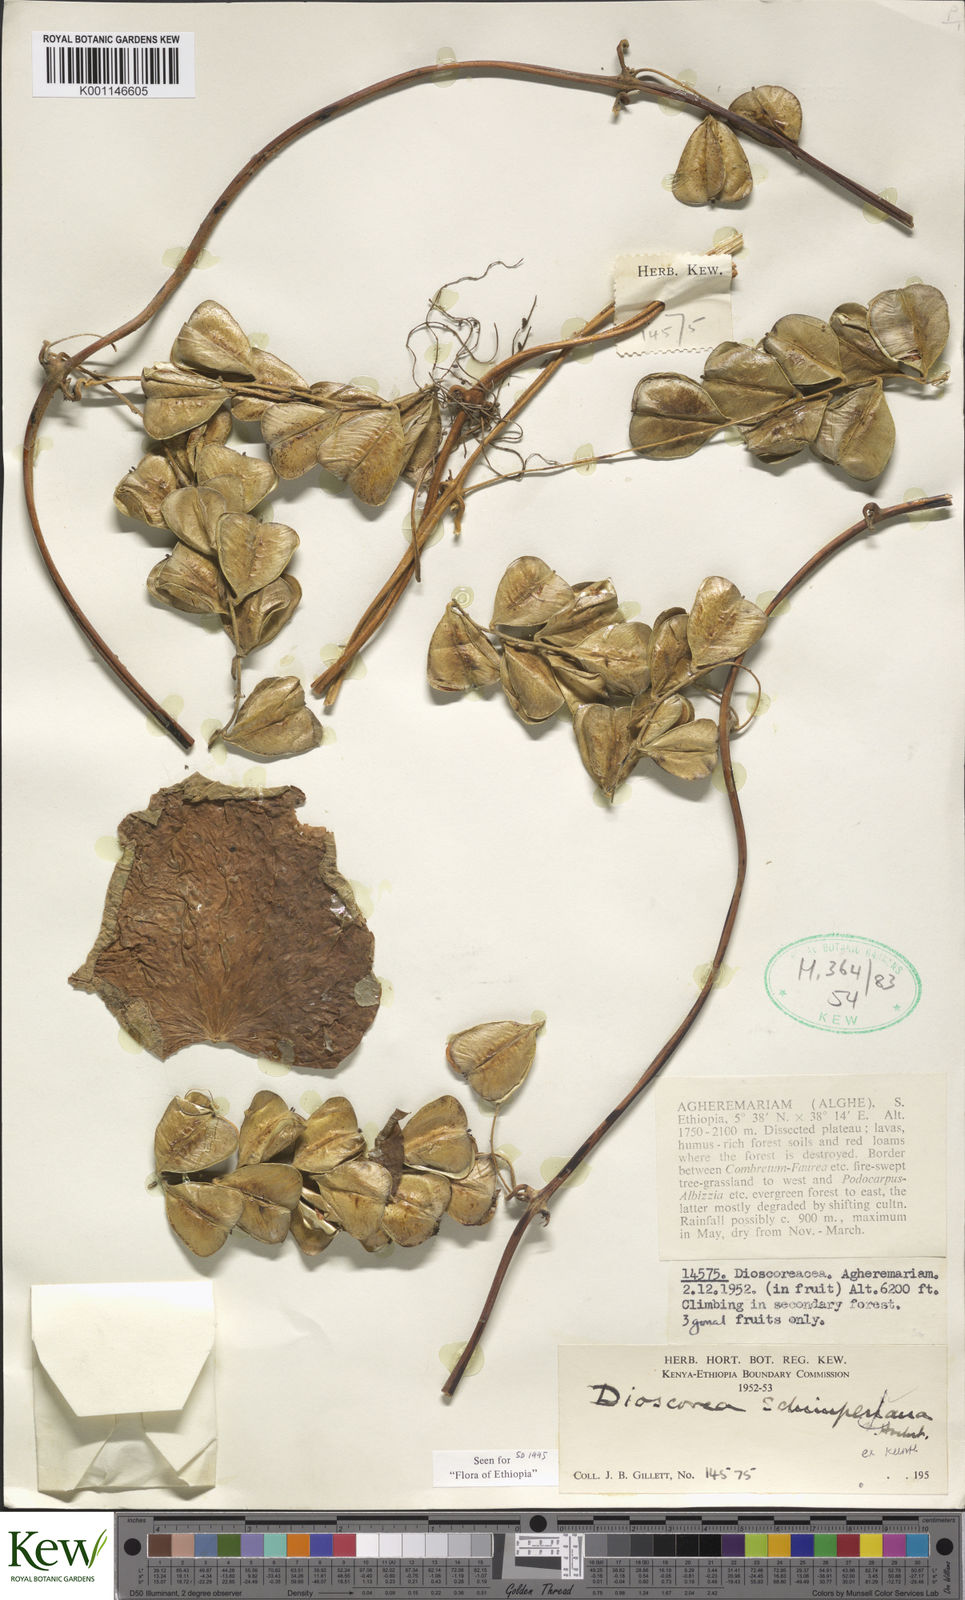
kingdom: Plantae
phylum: Tracheophyta
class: Liliopsida
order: Dioscoreales
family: Dioscoreaceae
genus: Dioscorea
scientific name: Dioscorea schimperiana
